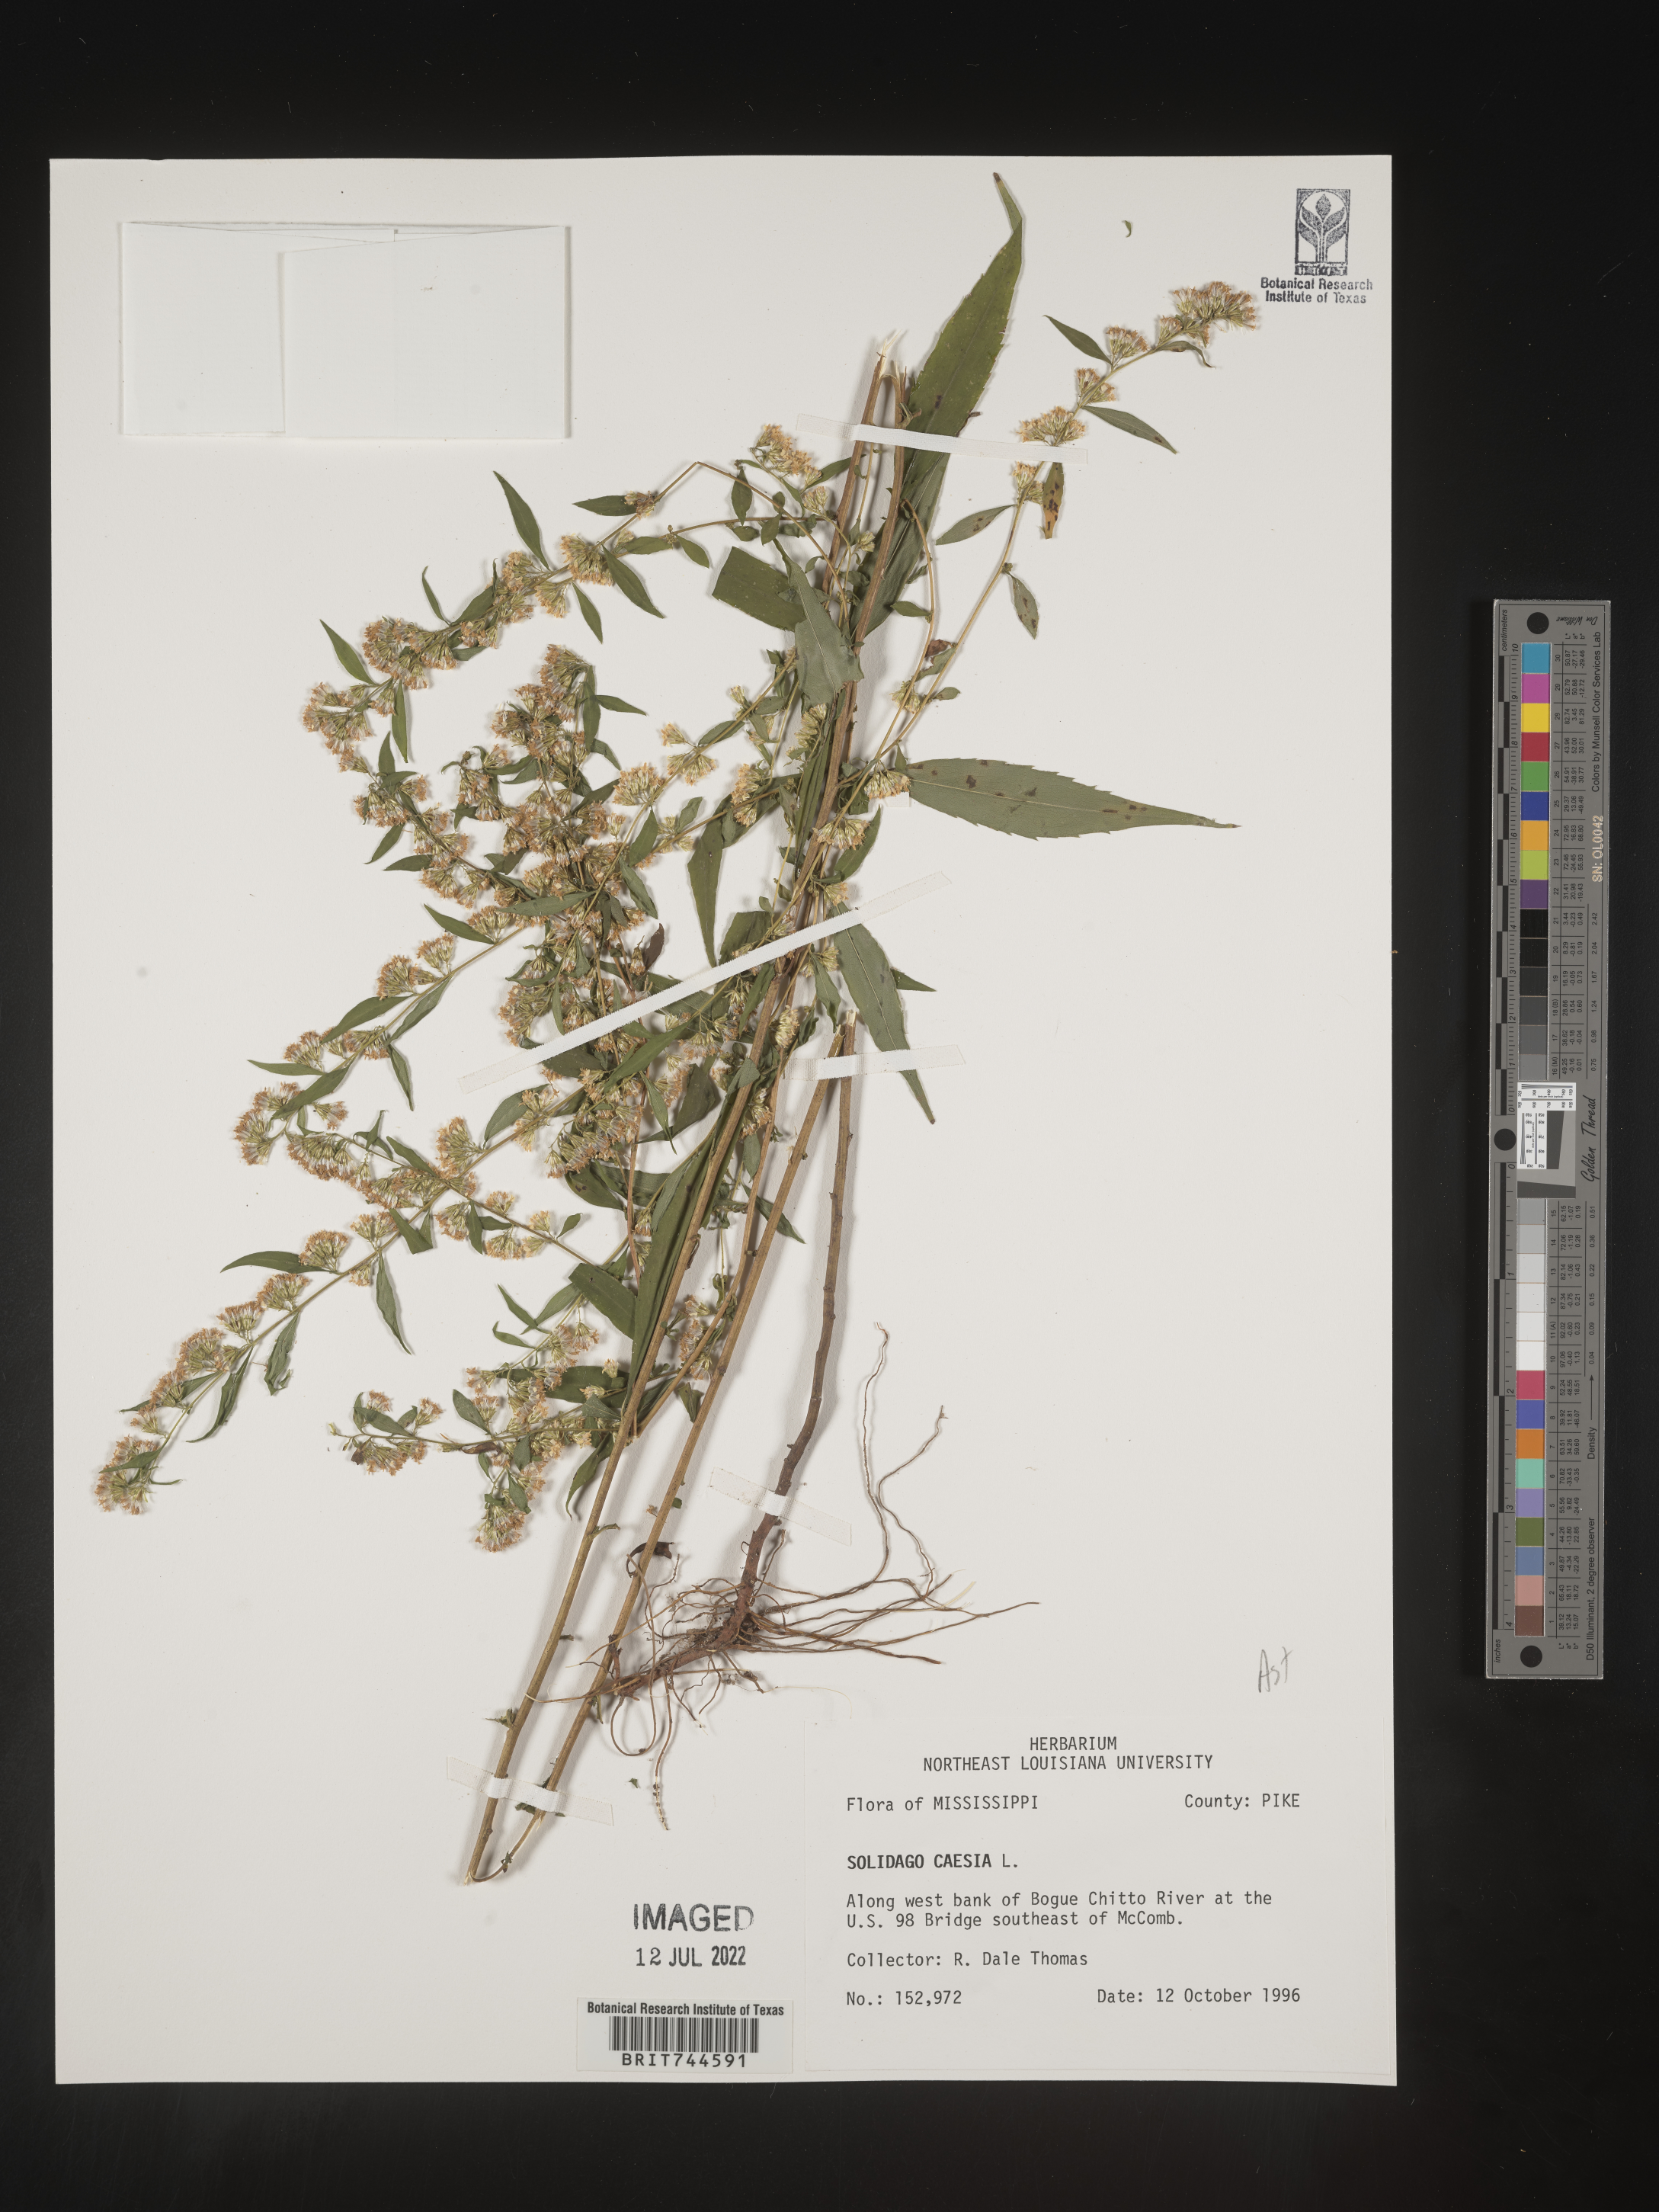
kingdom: Plantae
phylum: Tracheophyta
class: Magnoliopsida
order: Asterales
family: Asteraceae
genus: Solidago
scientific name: Solidago caesia
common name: Woodland goldenrod
